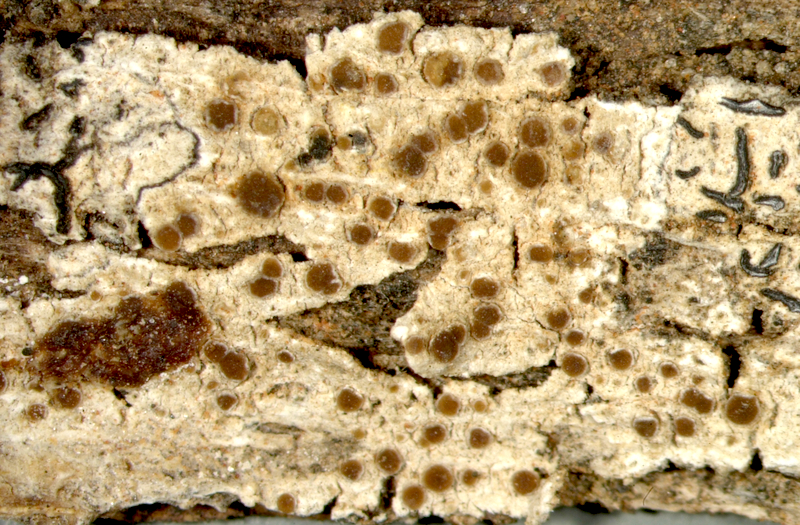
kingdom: Fungi
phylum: Ascomycota
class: Lecanoromycetes
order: Lecanorales
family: Ramalinaceae
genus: Bacidia
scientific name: Bacidia
